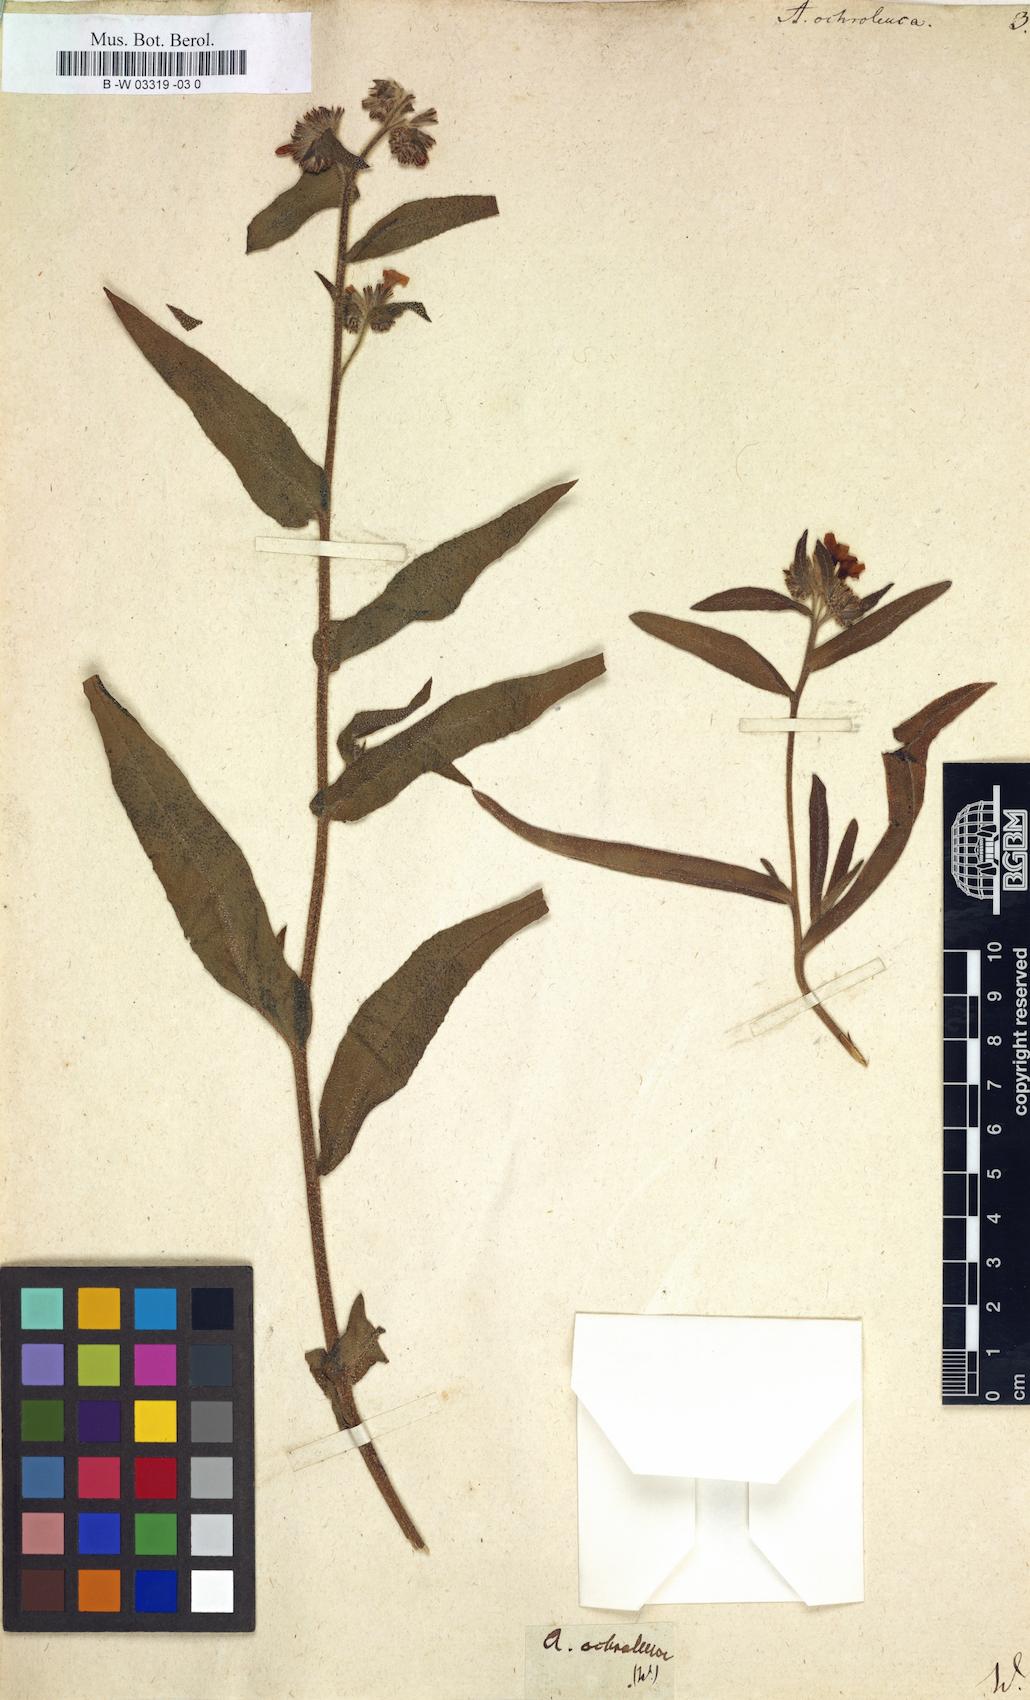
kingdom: Plantae
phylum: Tracheophyta
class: Magnoliopsida
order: Boraginales
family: Boraginaceae
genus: Anchusa
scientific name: Anchusa ochroleuca
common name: Yellow alkanet
